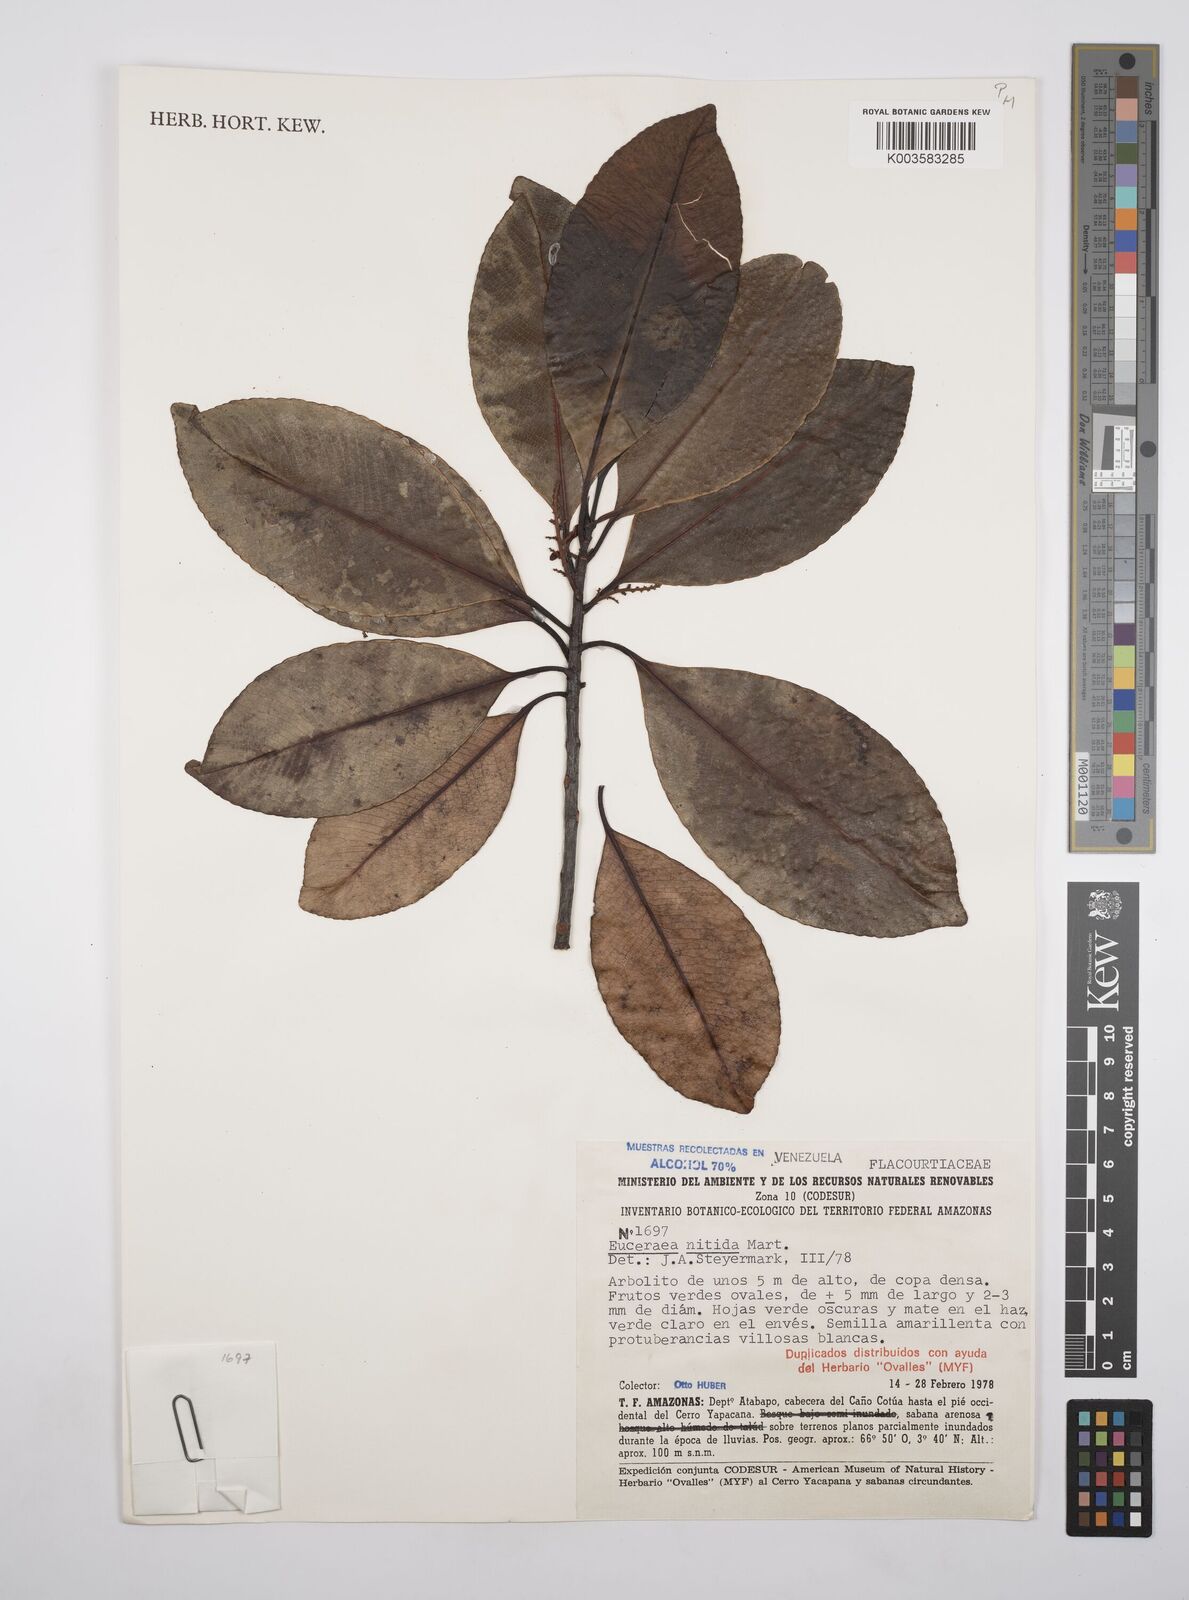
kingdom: Plantae
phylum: Tracheophyta
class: Magnoliopsida
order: Malpighiales
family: Salicaceae
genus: Casearia
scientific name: Casearia euceraea
